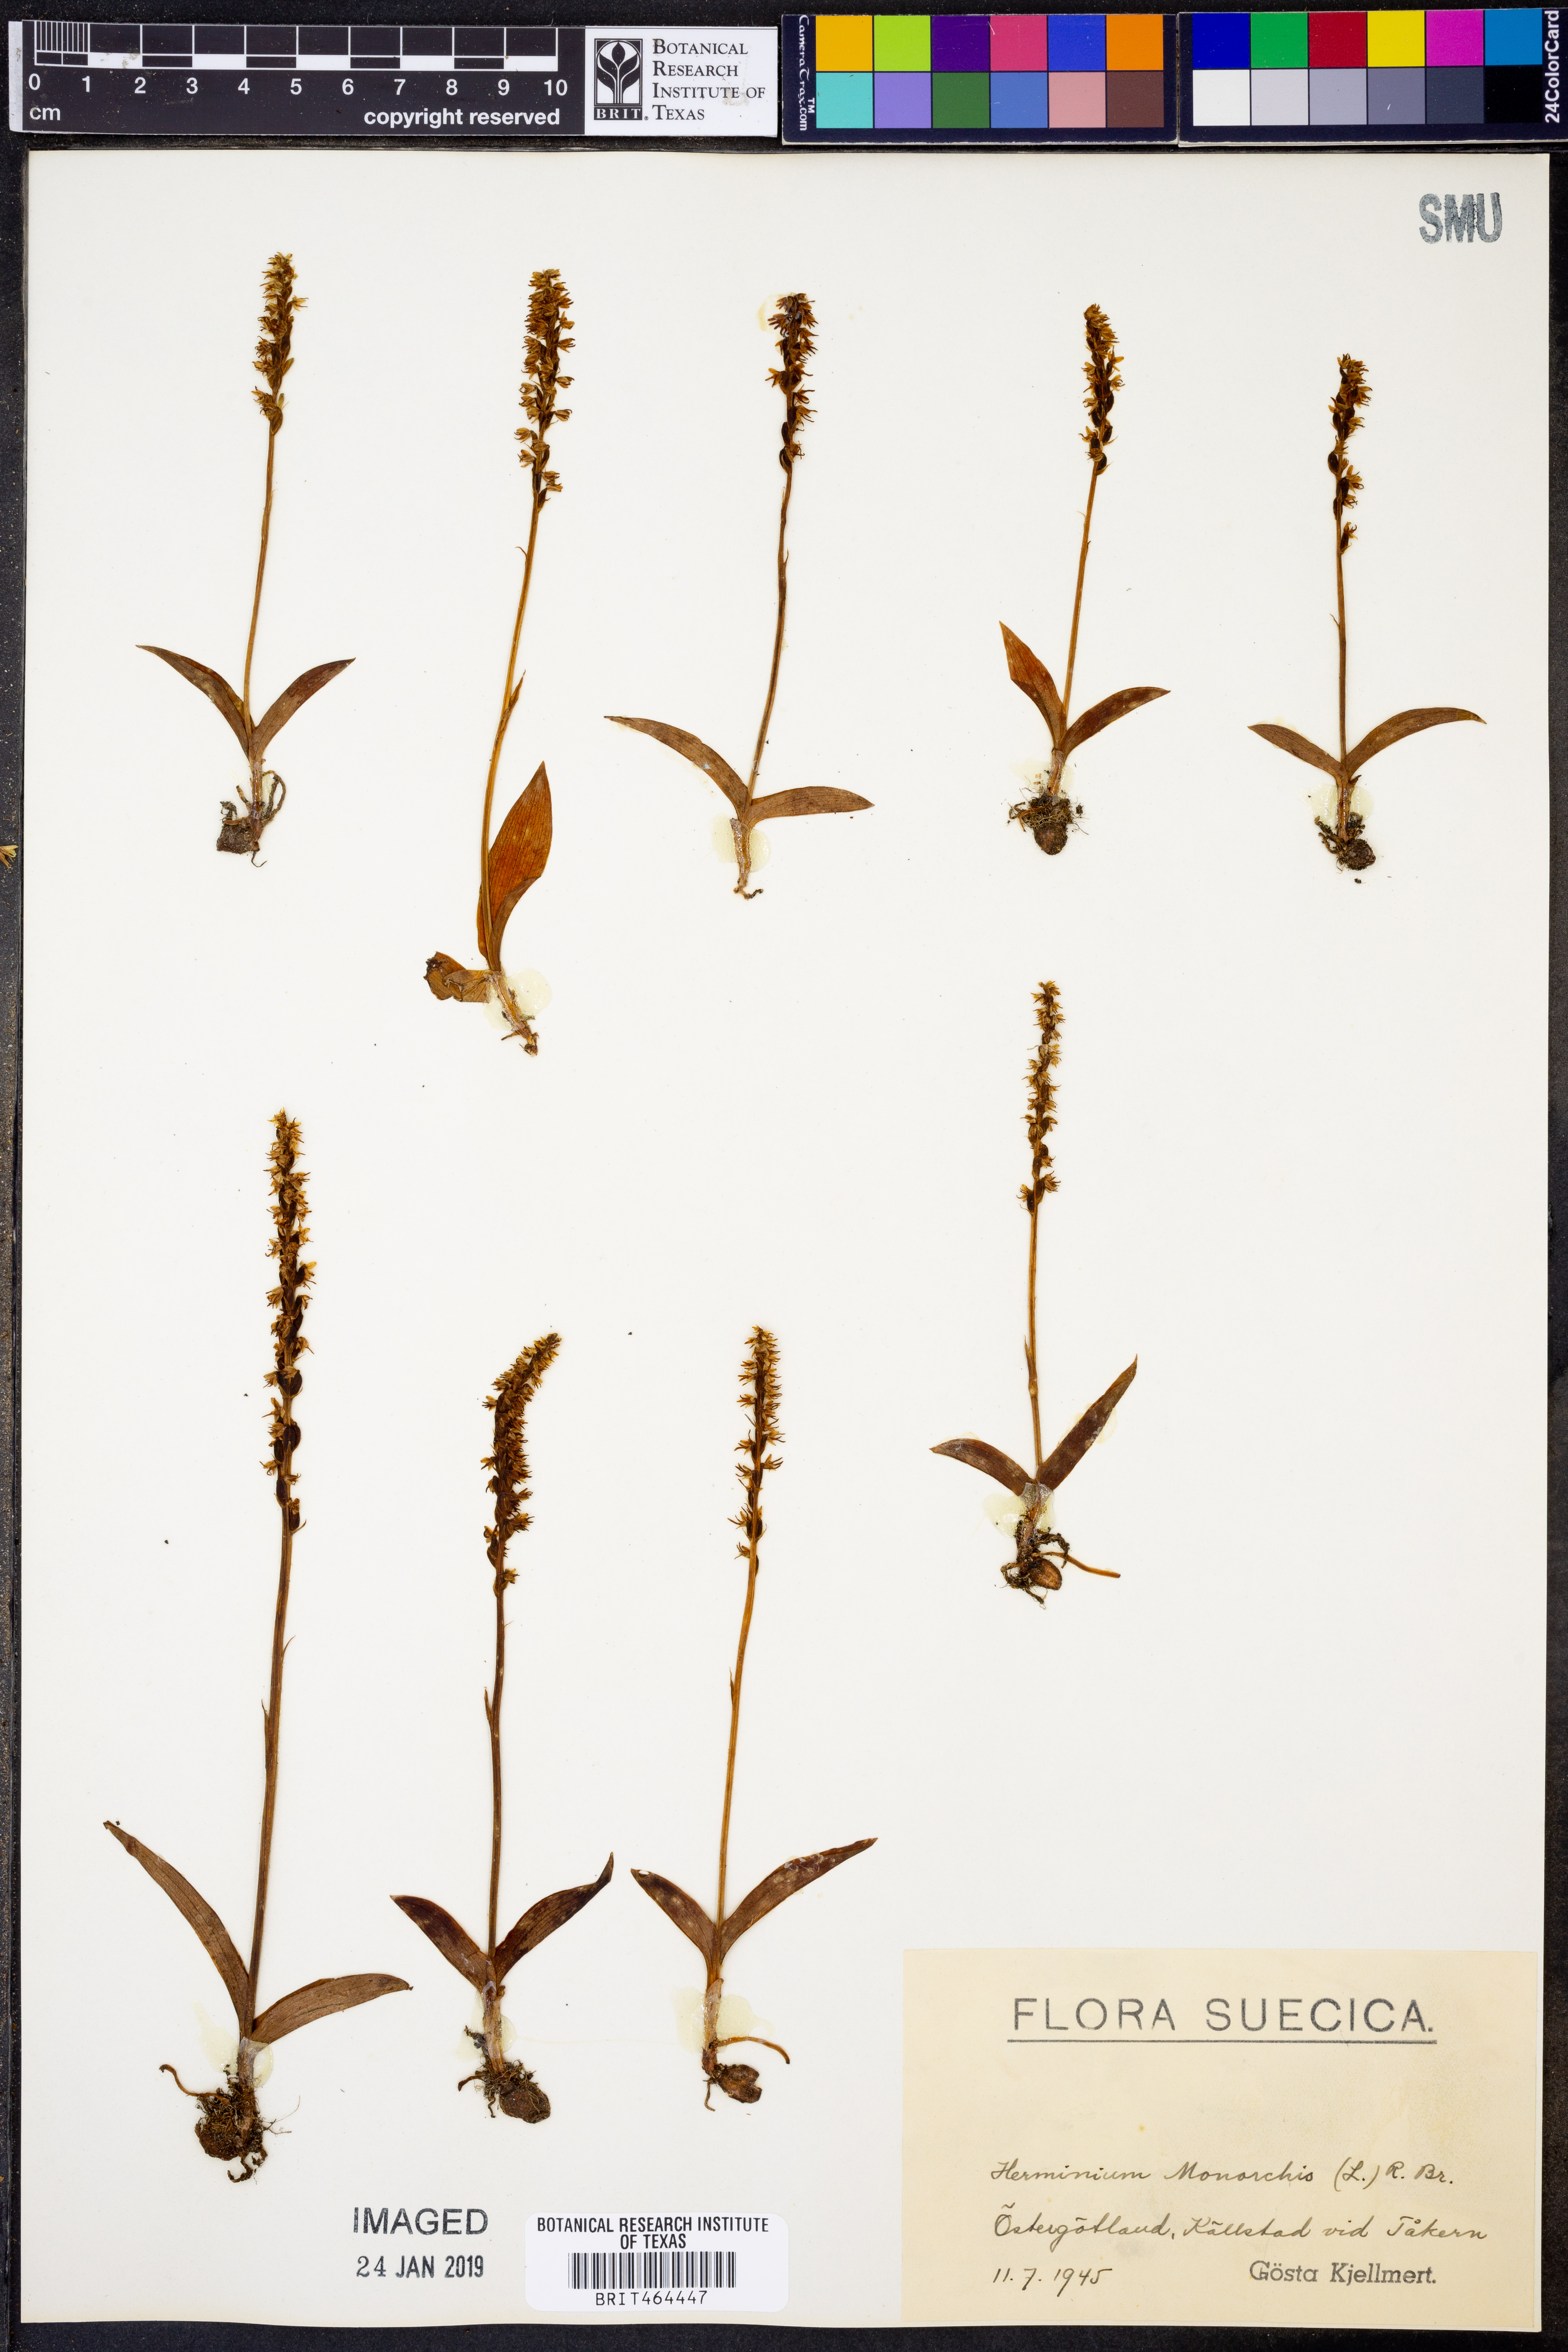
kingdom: Plantae
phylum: Tracheophyta
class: Liliopsida
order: Asparagales
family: Orchidaceae
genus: Herminium
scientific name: Herminium monorchis
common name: Musk orchid
